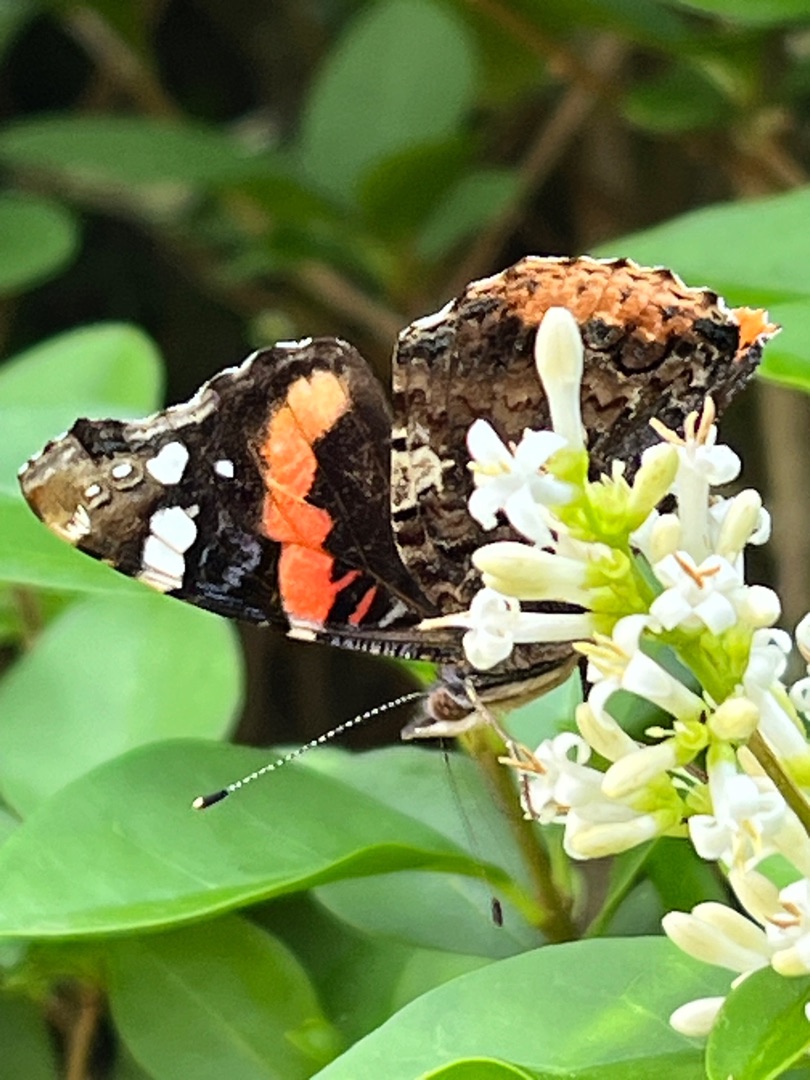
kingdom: Animalia
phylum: Arthropoda
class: Insecta
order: Lepidoptera
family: Nymphalidae
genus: Vanessa
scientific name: Vanessa atalanta
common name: Admiral
